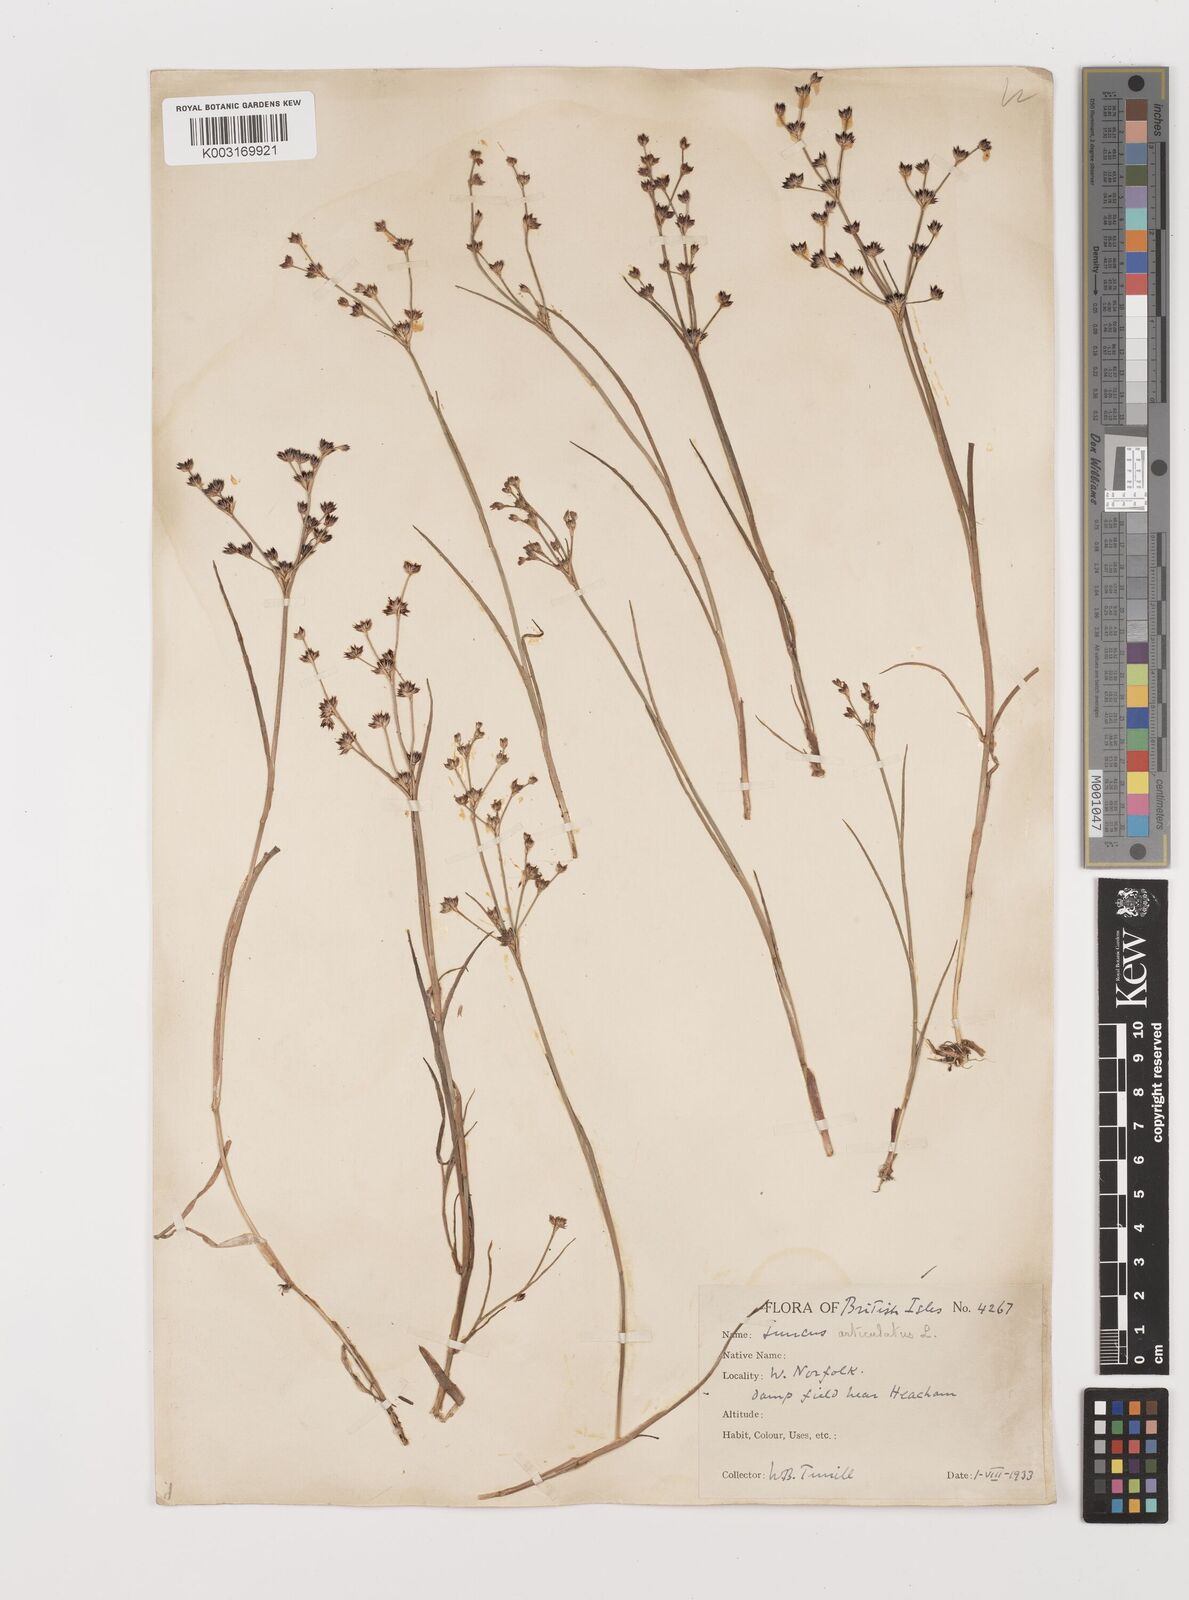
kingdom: Plantae
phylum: Tracheophyta
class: Liliopsida
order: Poales
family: Juncaceae
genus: Juncus
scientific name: Juncus articulatus
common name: Jointed rush
